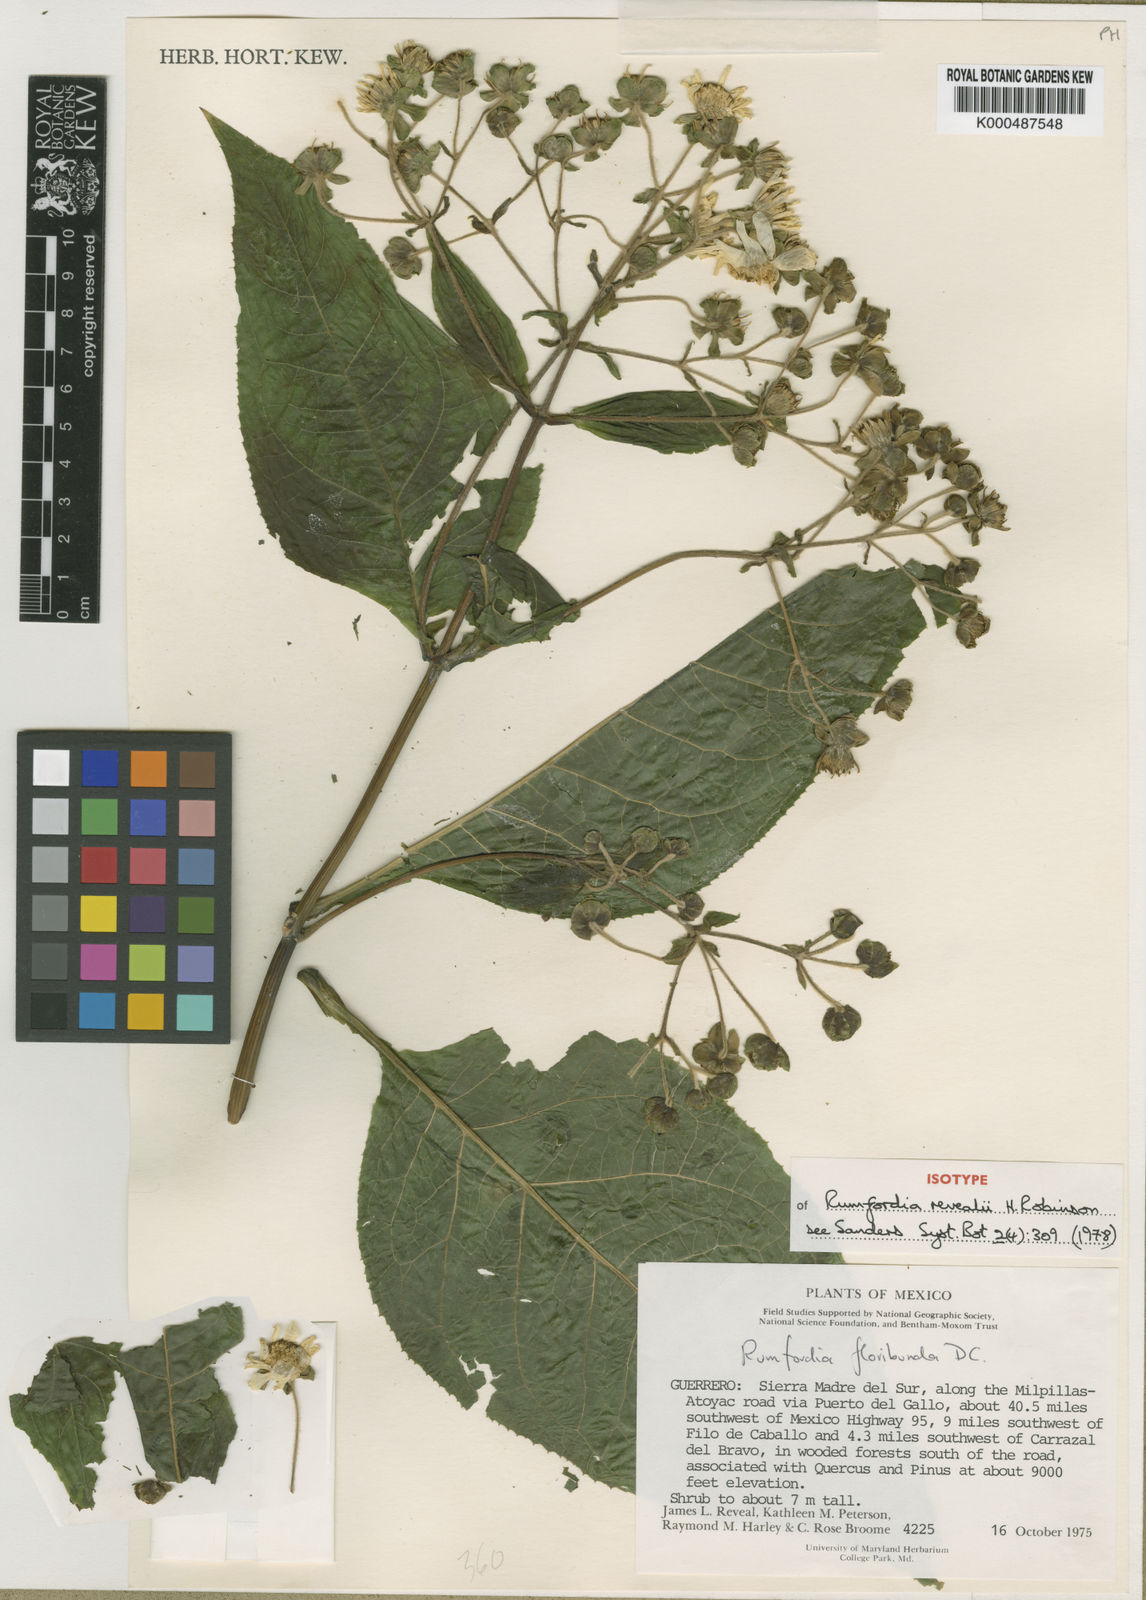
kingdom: Plantae
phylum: Tracheophyta
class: Magnoliopsida
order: Asterales
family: Asteraceae
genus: Rumfordia
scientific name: Rumfordia revealii
